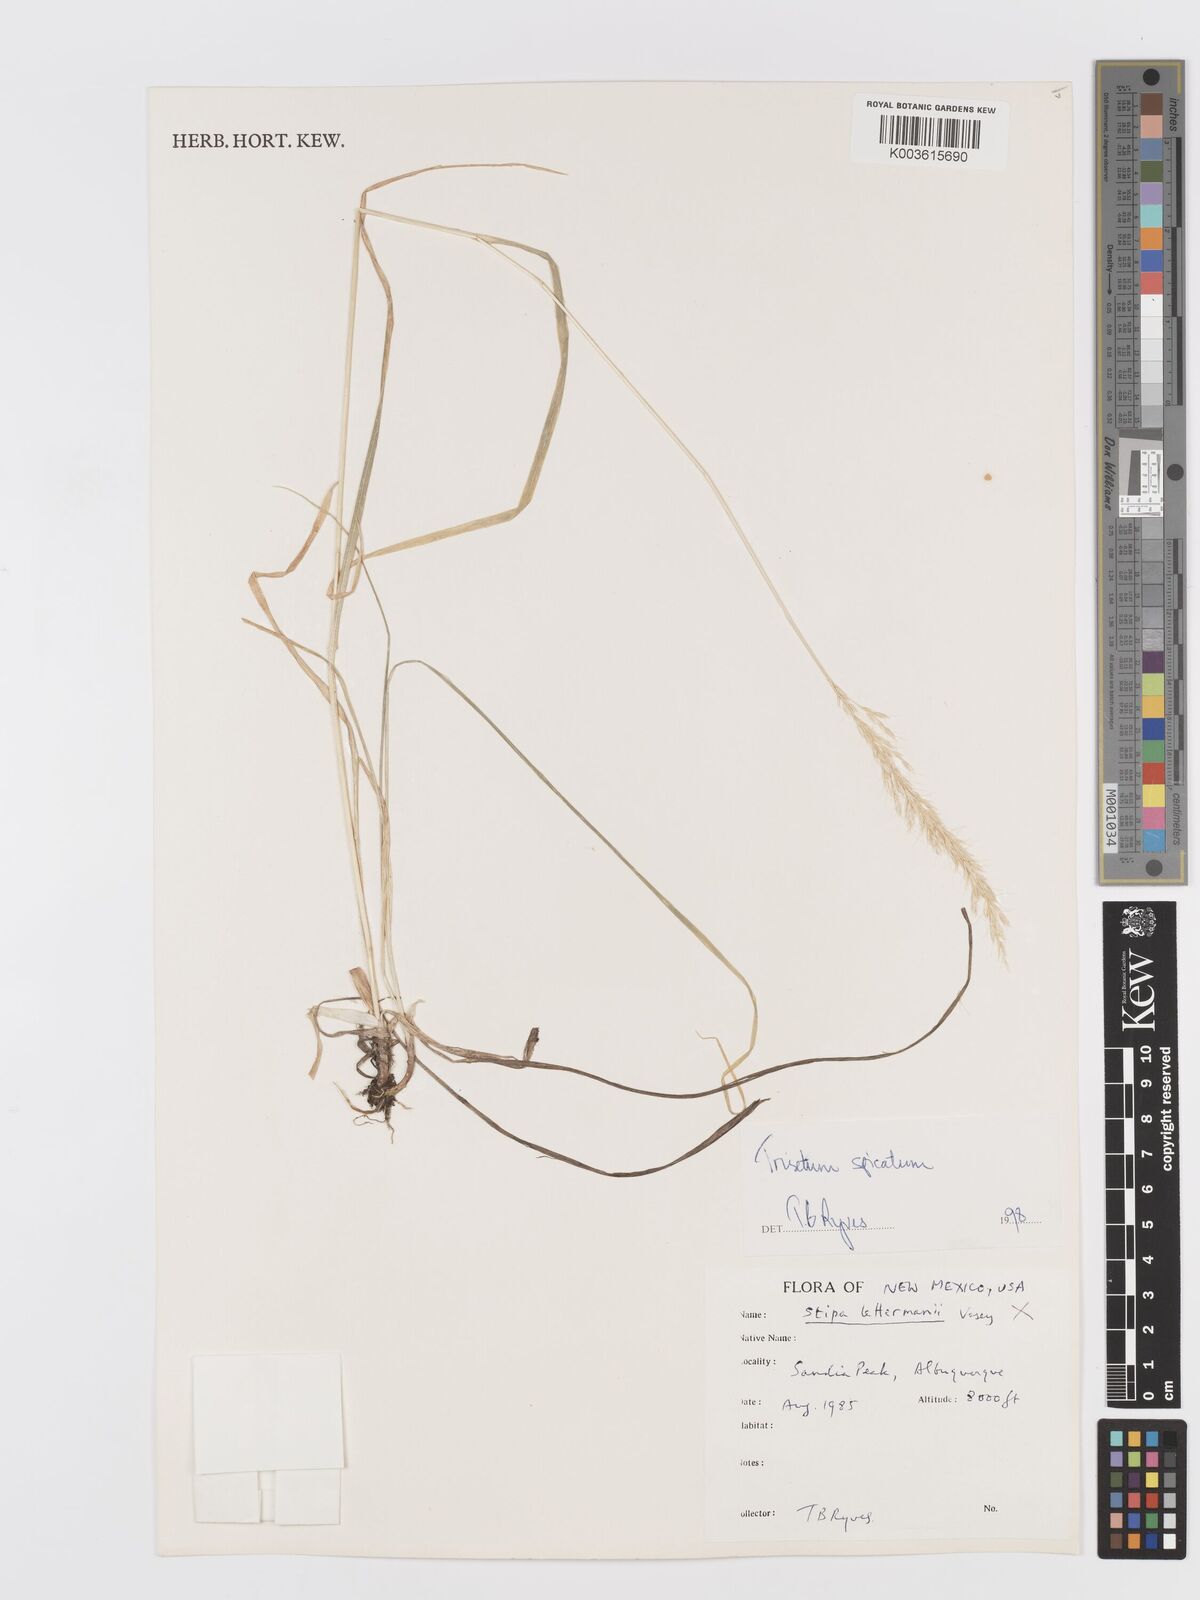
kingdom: Plantae
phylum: Tracheophyta
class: Liliopsida
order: Poales
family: Poaceae
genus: Koeleria
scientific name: Koeleria spicata
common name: Mountain trisetum
